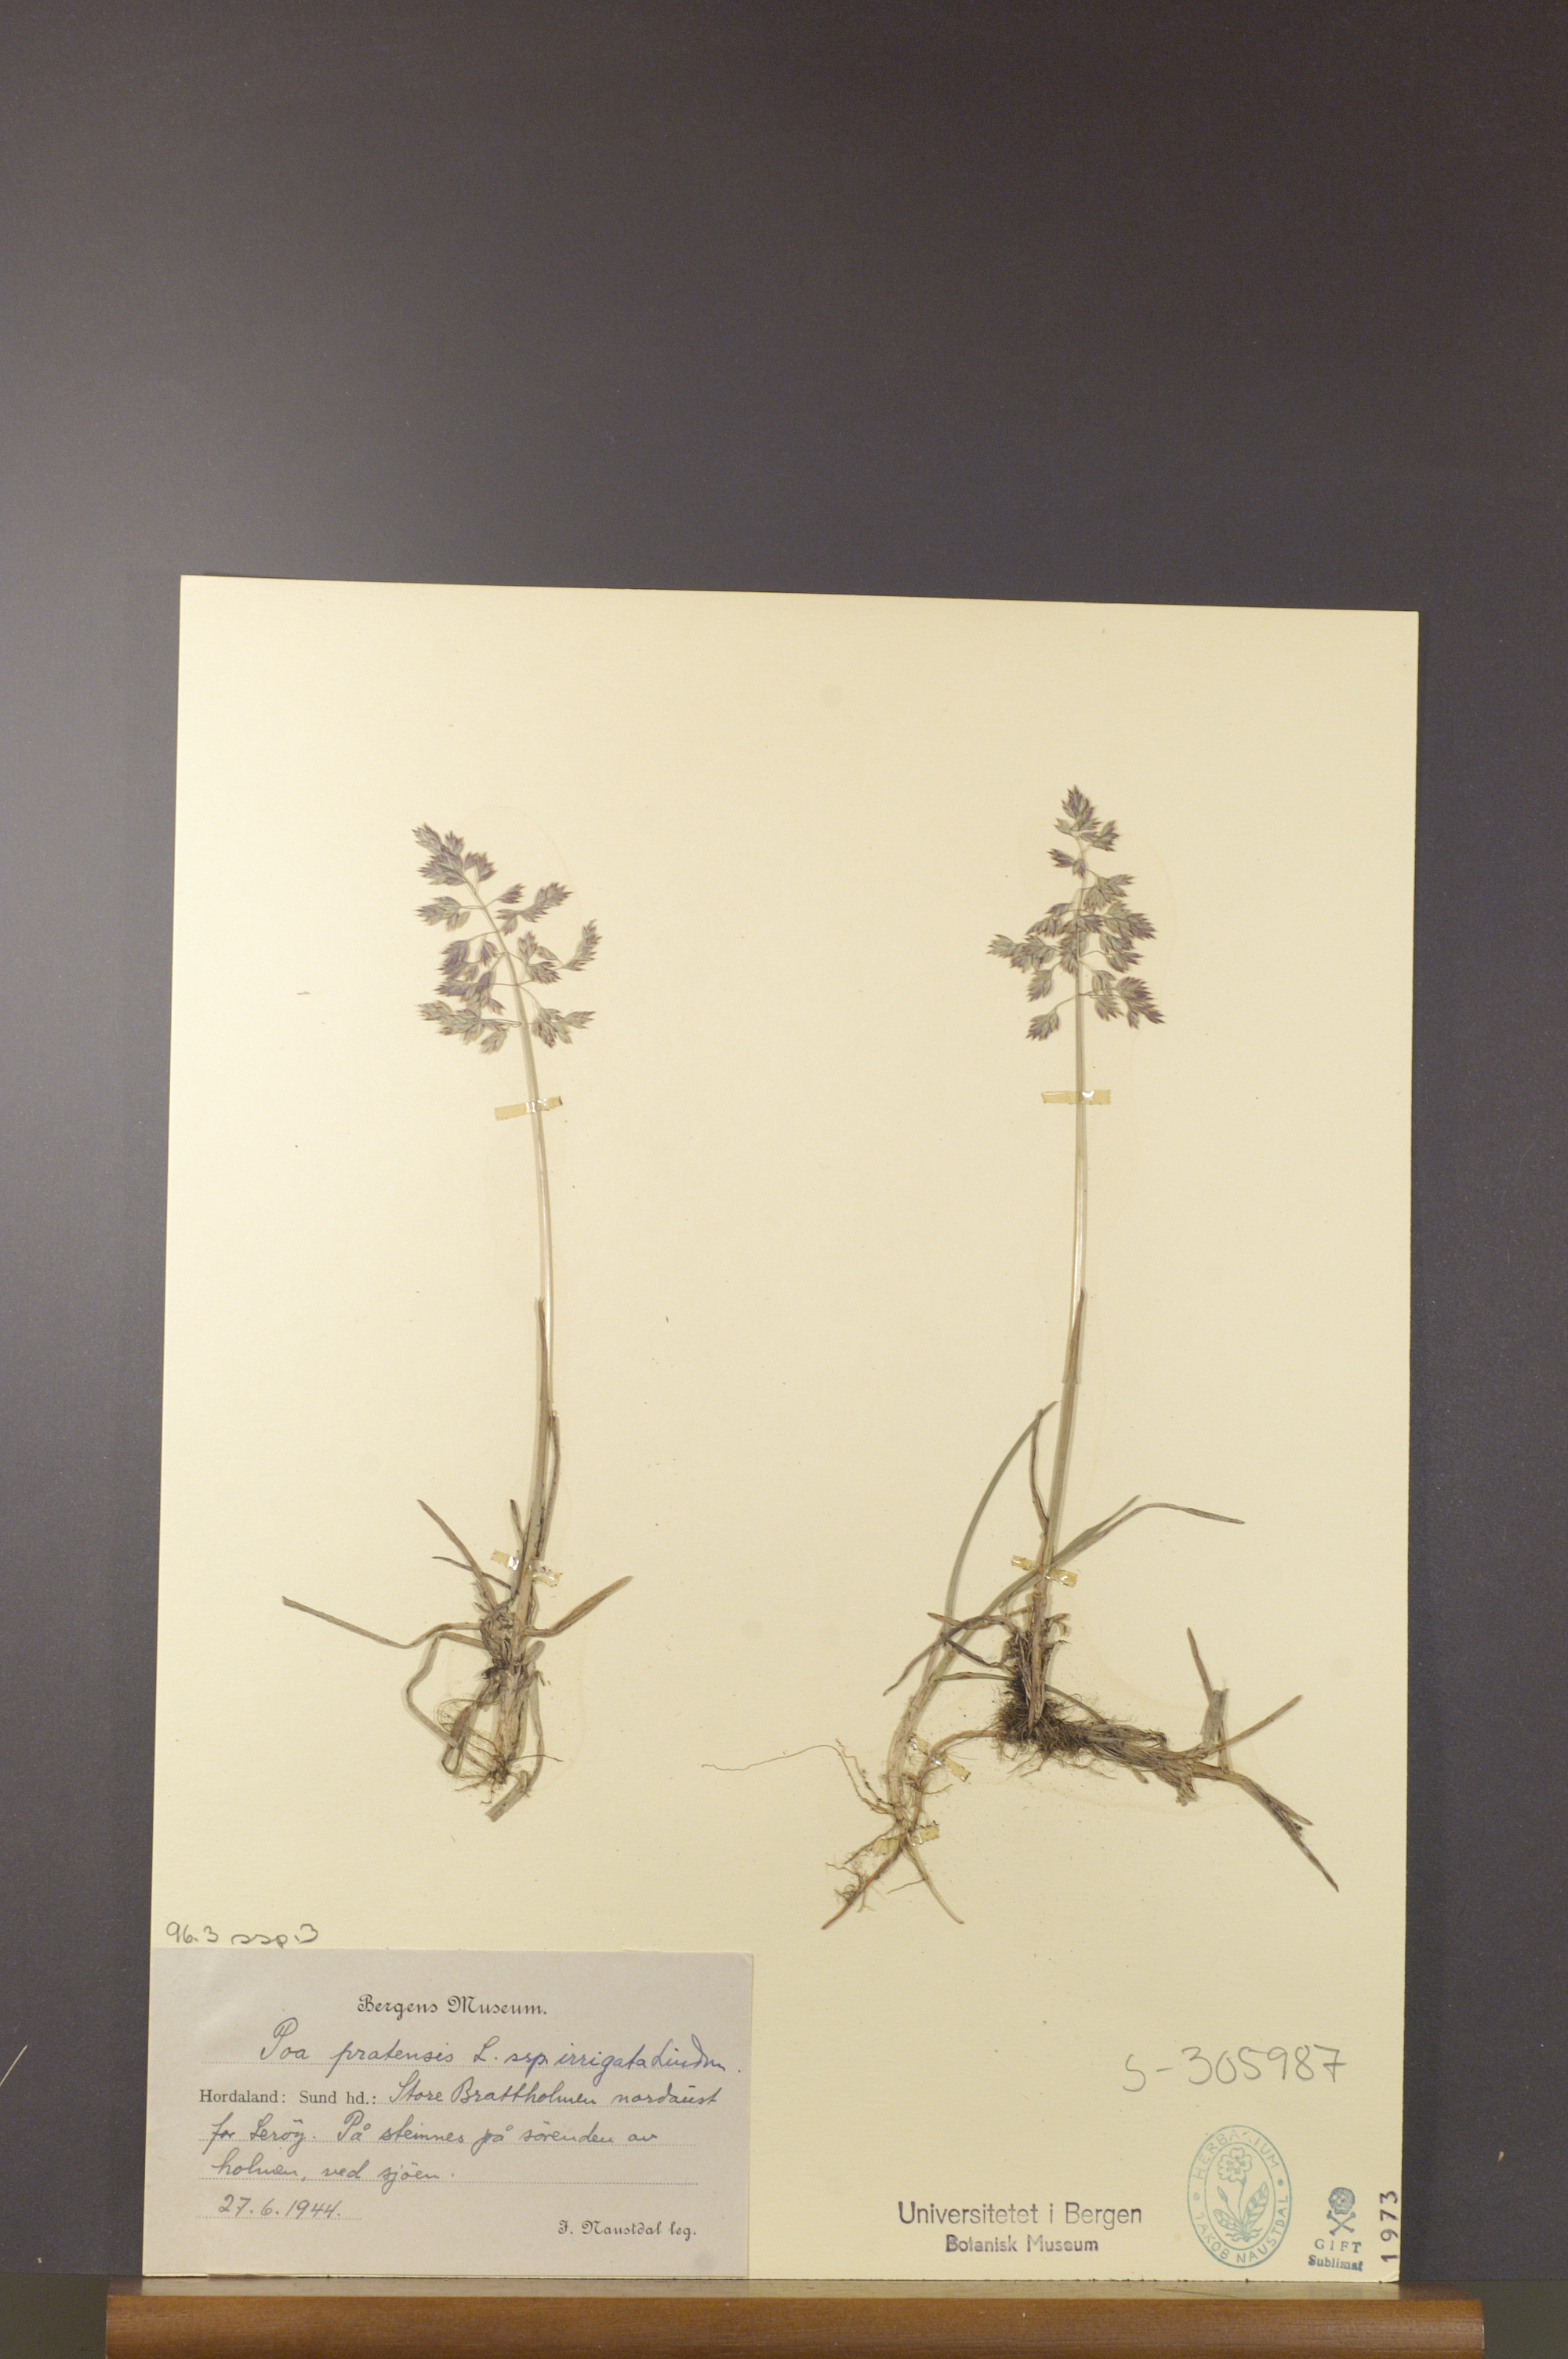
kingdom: Plantae
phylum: Tracheophyta
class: Liliopsida
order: Poales
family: Poaceae
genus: Poa
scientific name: Poa humilis
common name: Spreading meadow-grass
